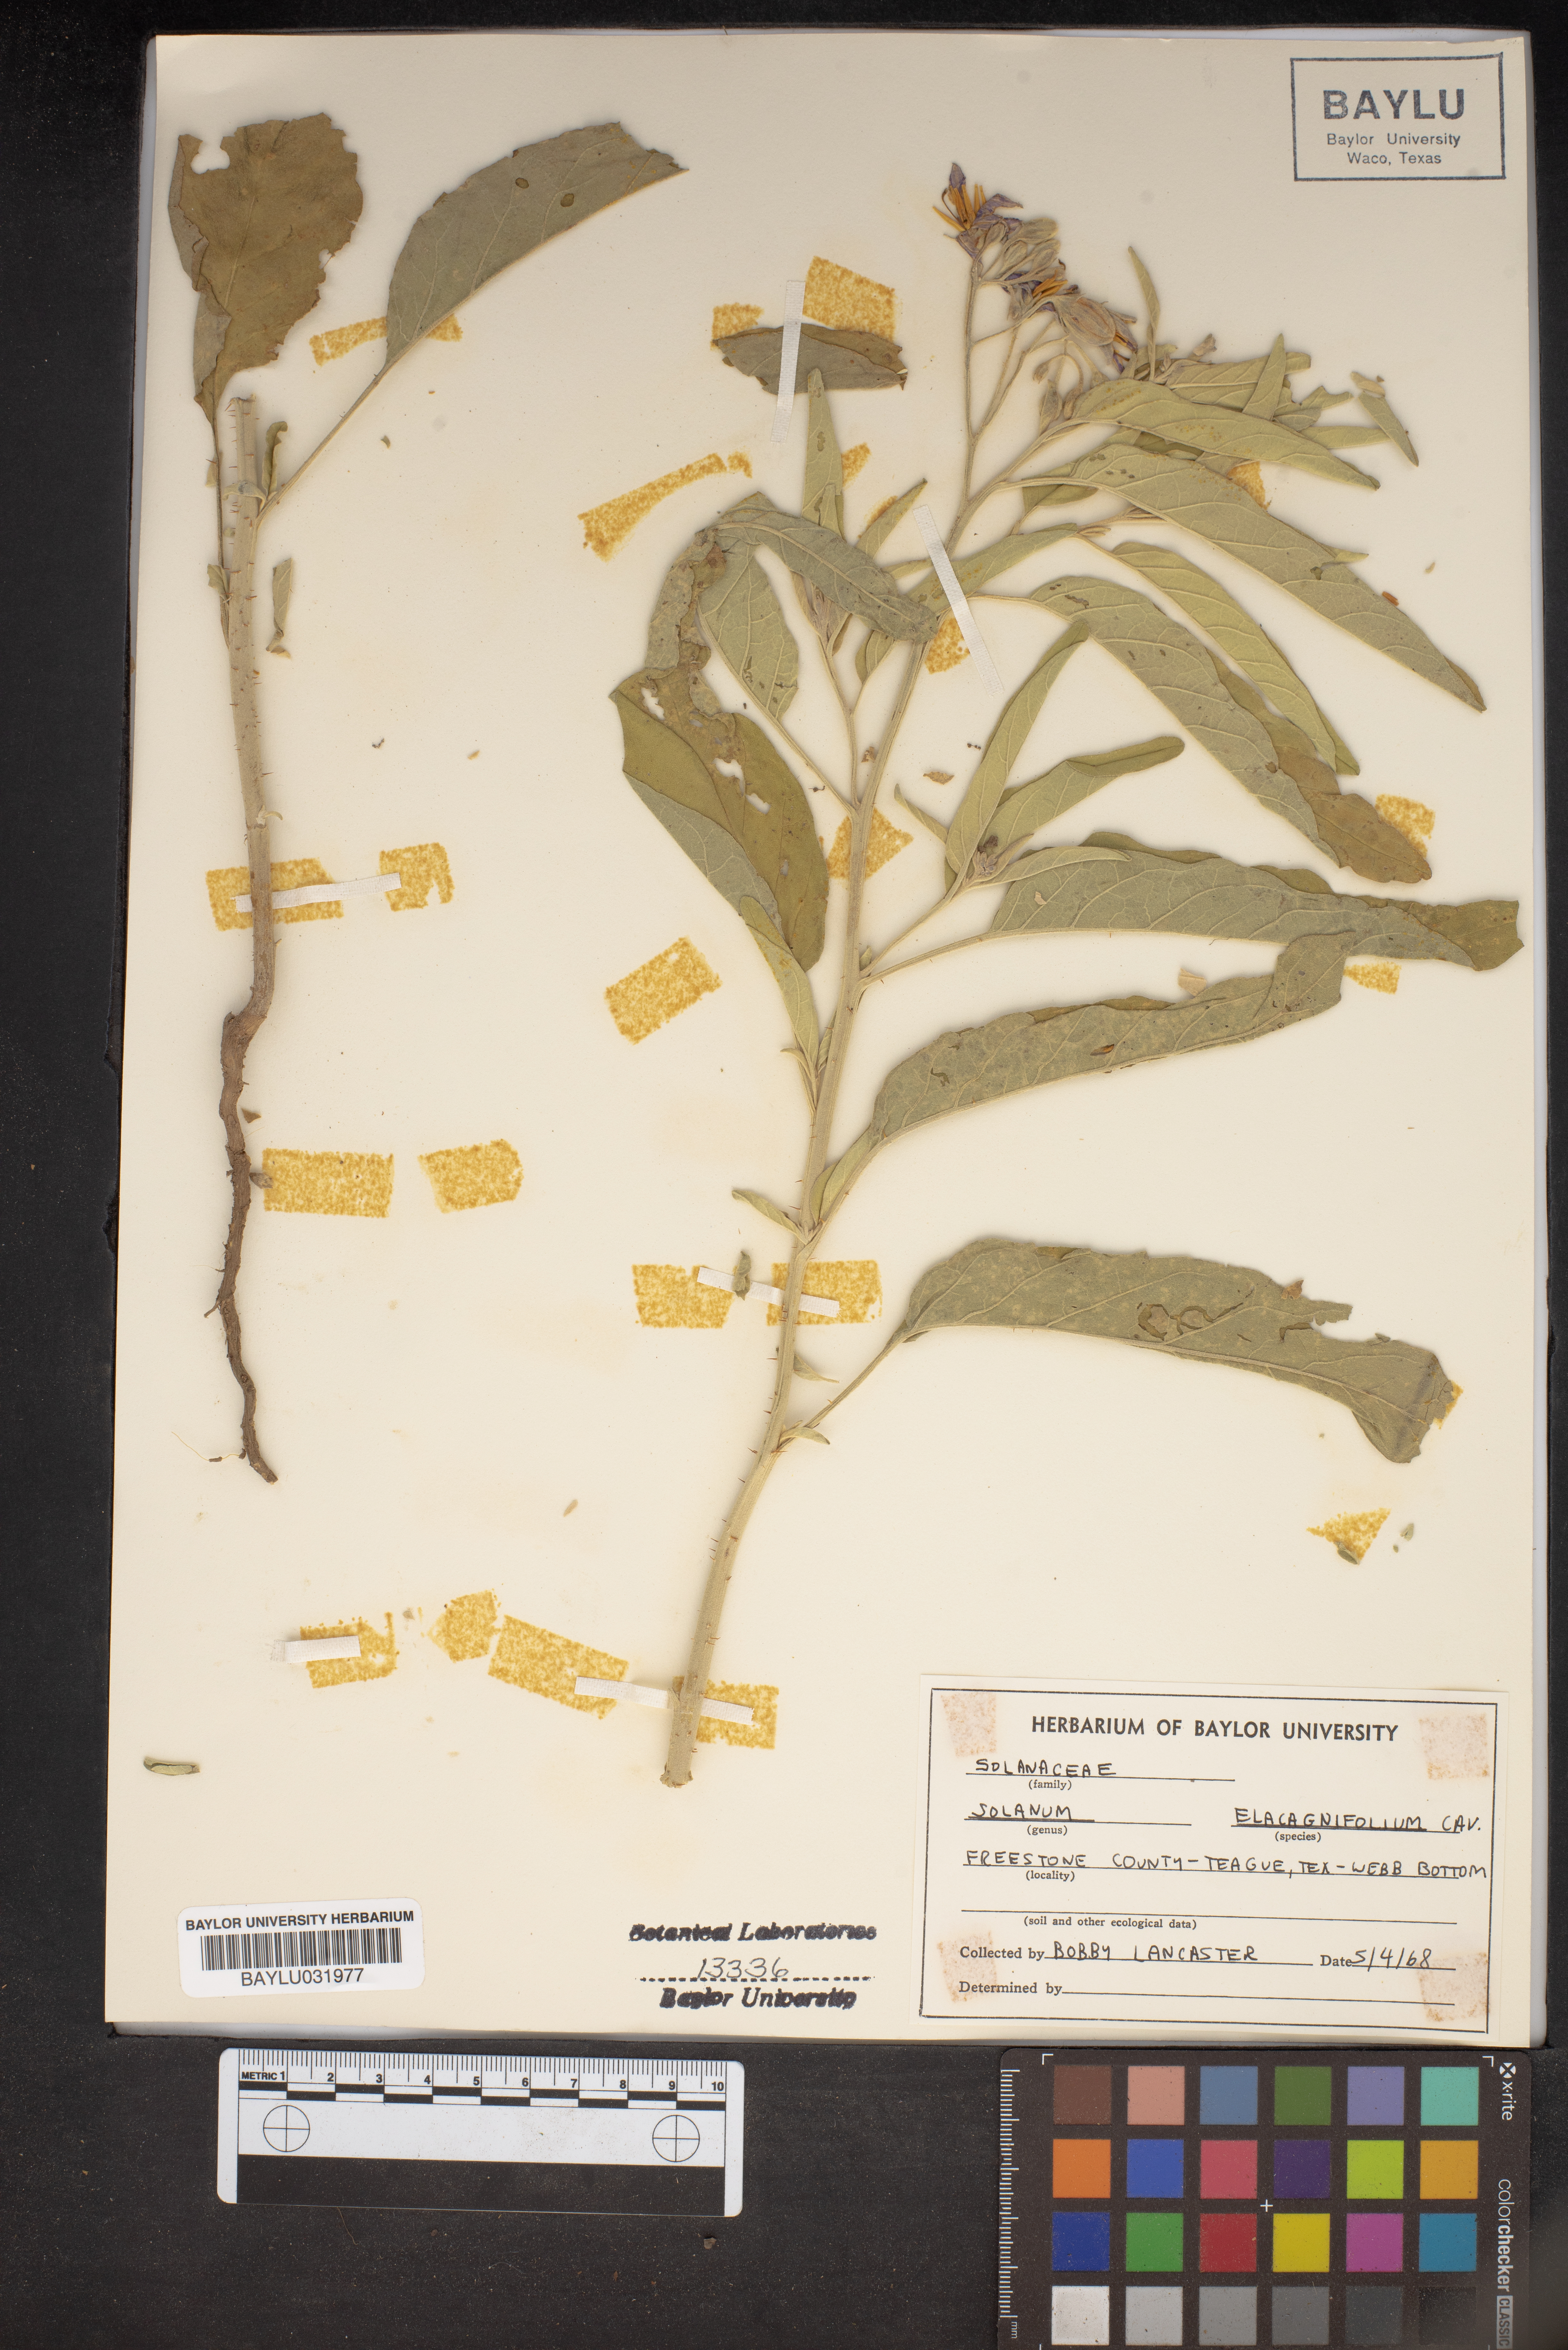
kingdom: Plantae
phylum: Tracheophyta
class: Magnoliopsida
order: Solanales
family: Solanaceae
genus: Solanum
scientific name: Solanum elaeagnifolium
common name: Silverleaf nightshade
